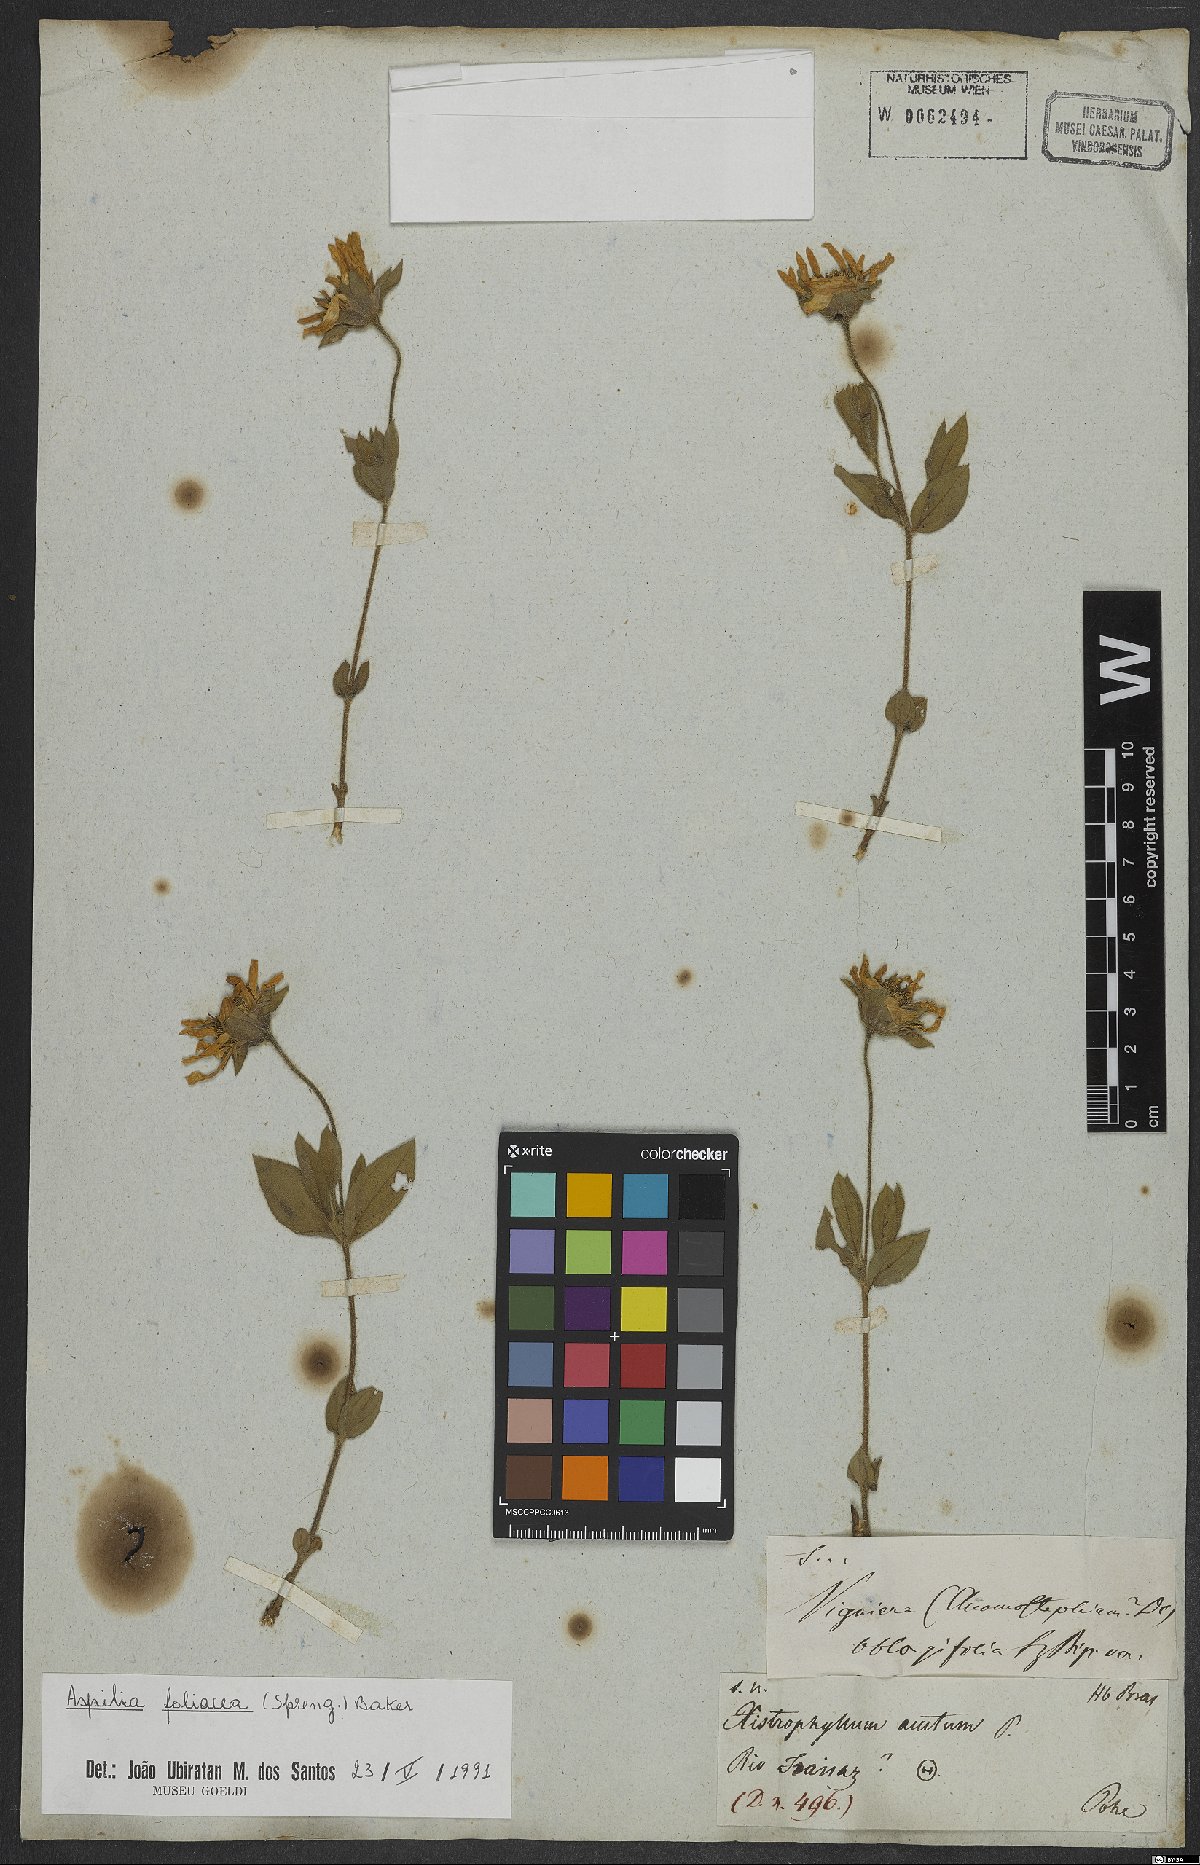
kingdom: Plantae
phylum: Tracheophyta
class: Magnoliopsida
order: Asterales
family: Asteraceae
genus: Aspilia
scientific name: Aspilia foliosa
